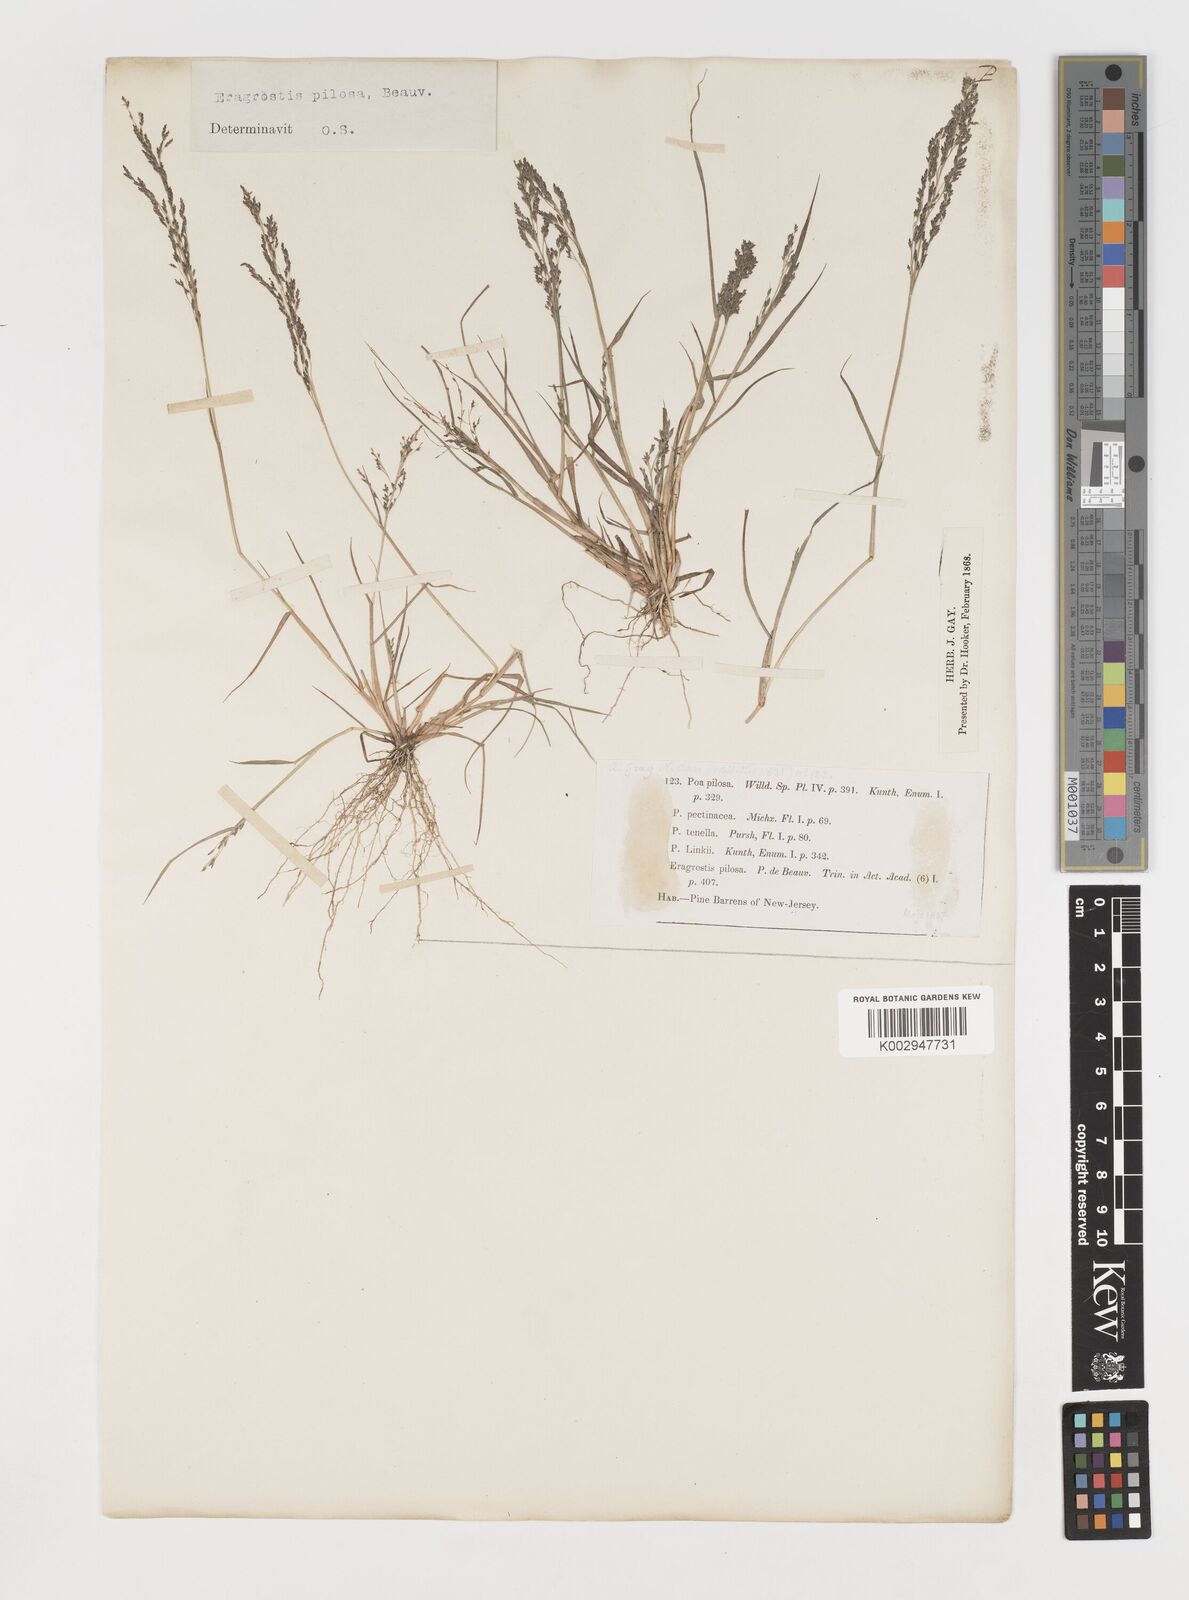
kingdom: Plantae
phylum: Tracheophyta
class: Liliopsida
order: Poales
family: Poaceae
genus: Eragrostis
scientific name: Eragrostis pilosa
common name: Indian lovegrass
